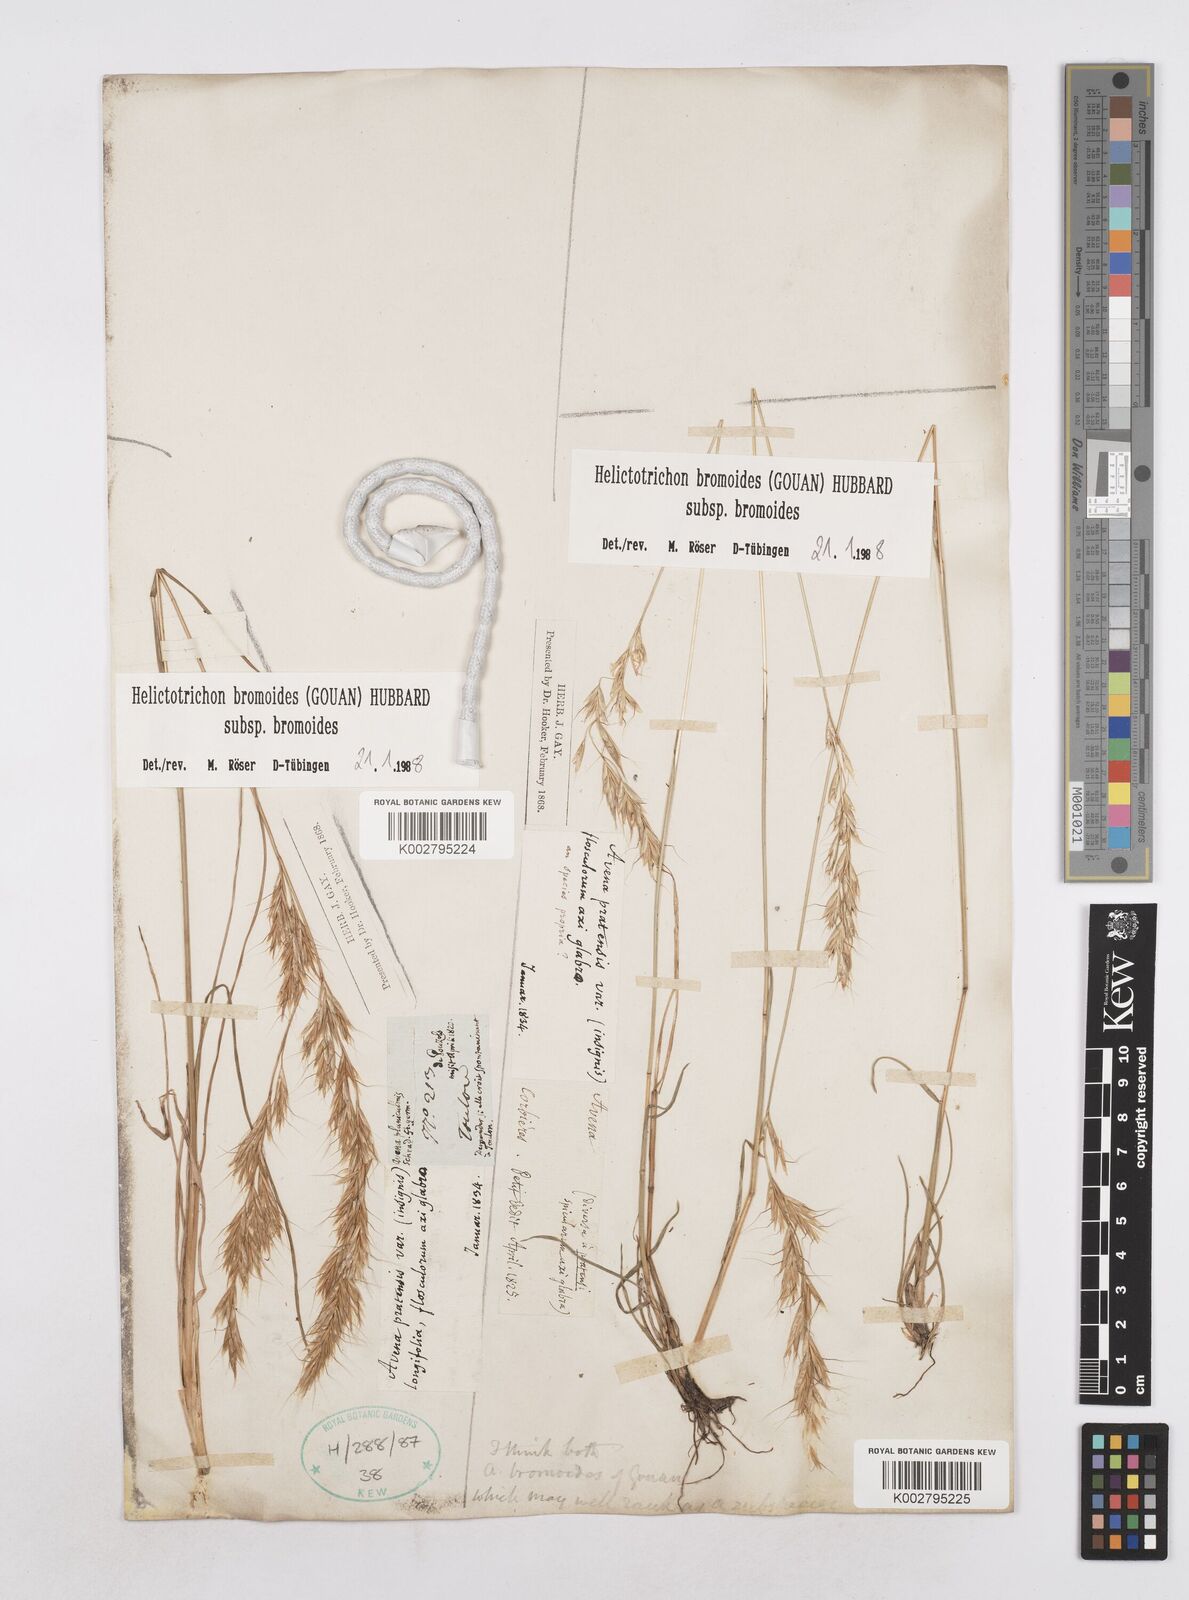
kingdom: Plantae
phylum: Tracheophyta
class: Liliopsida
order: Poales
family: Poaceae
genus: Helictochloa
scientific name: Helictochloa bromoides
